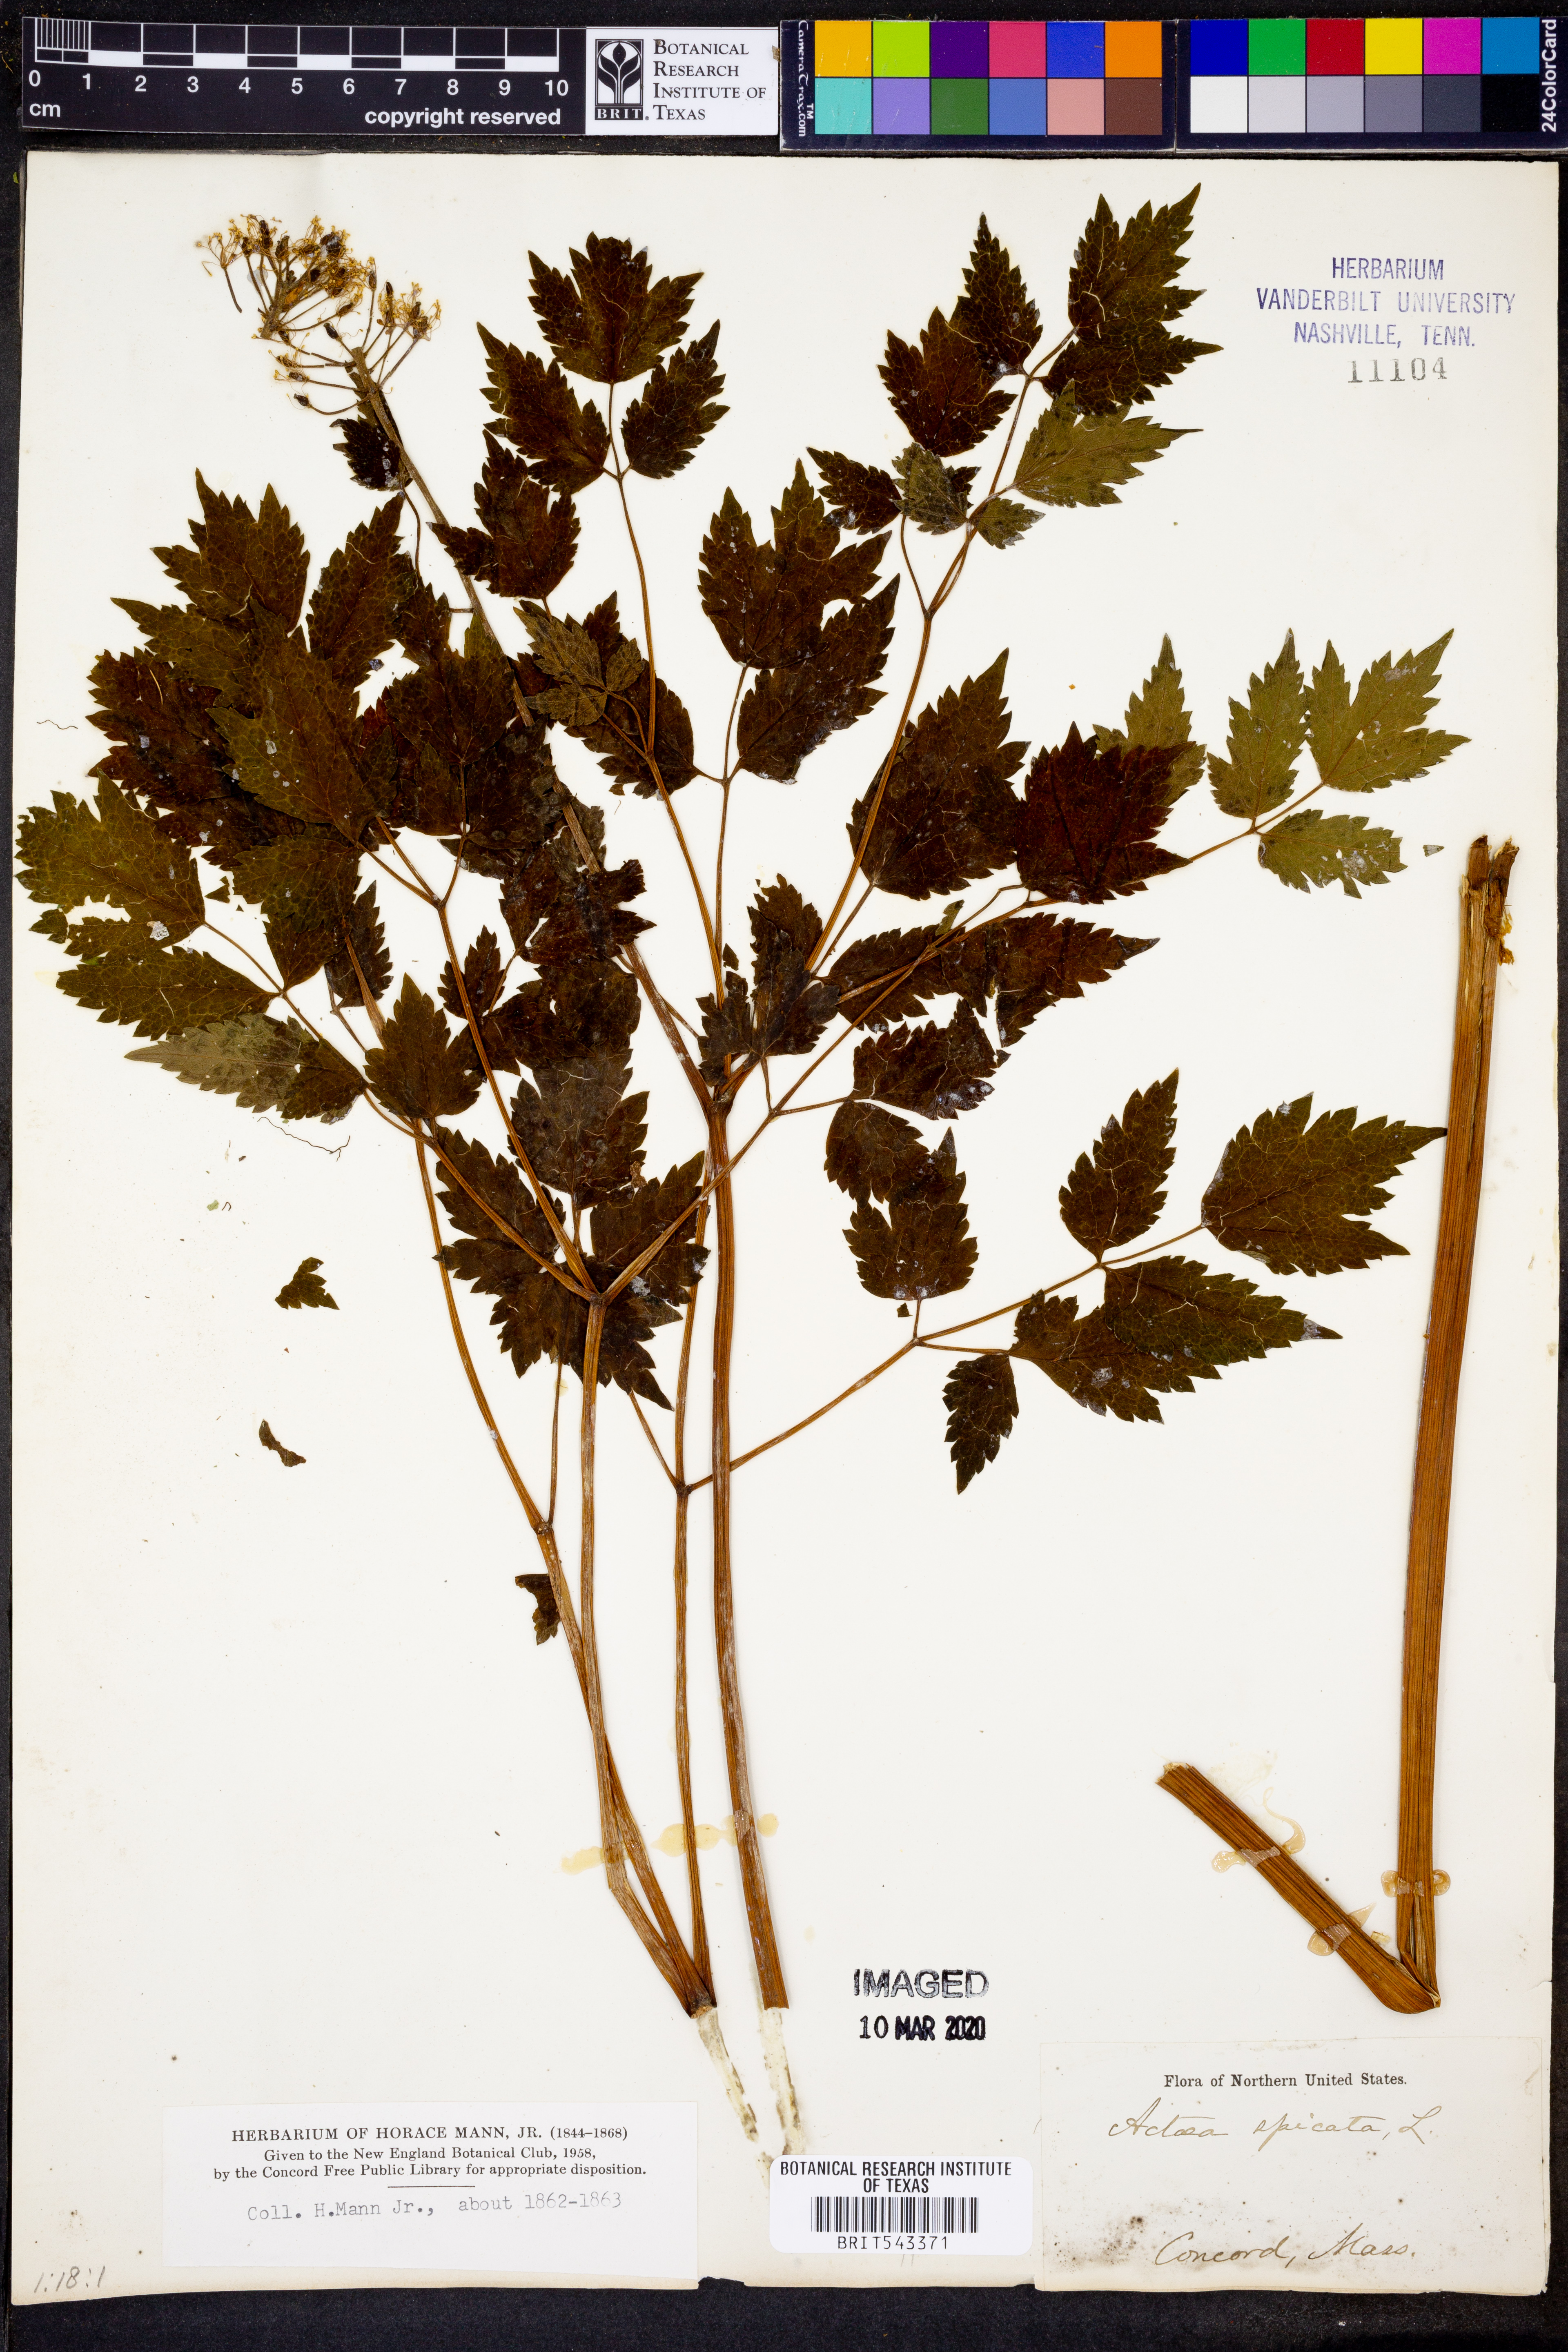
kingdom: Plantae
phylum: Tracheophyta
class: Magnoliopsida
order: Ranunculales
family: Ranunculaceae
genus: Actaea
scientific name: Actaea spicata
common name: Baneberry
